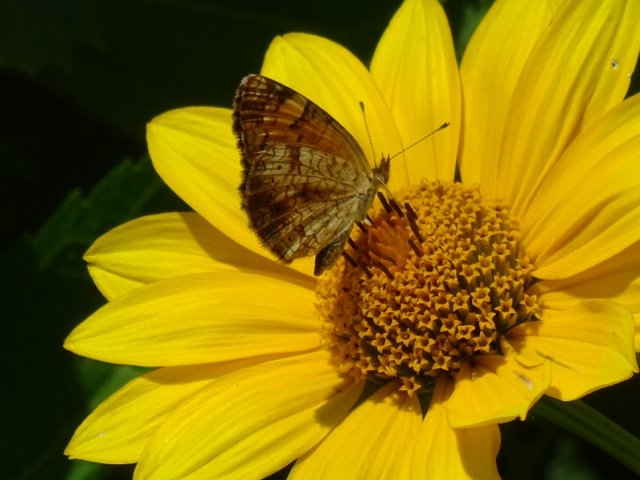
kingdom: Animalia
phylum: Arthropoda
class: Insecta
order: Lepidoptera
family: Nymphalidae
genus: Phyciodes
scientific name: Phyciodes tharos
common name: Northern Crescent
